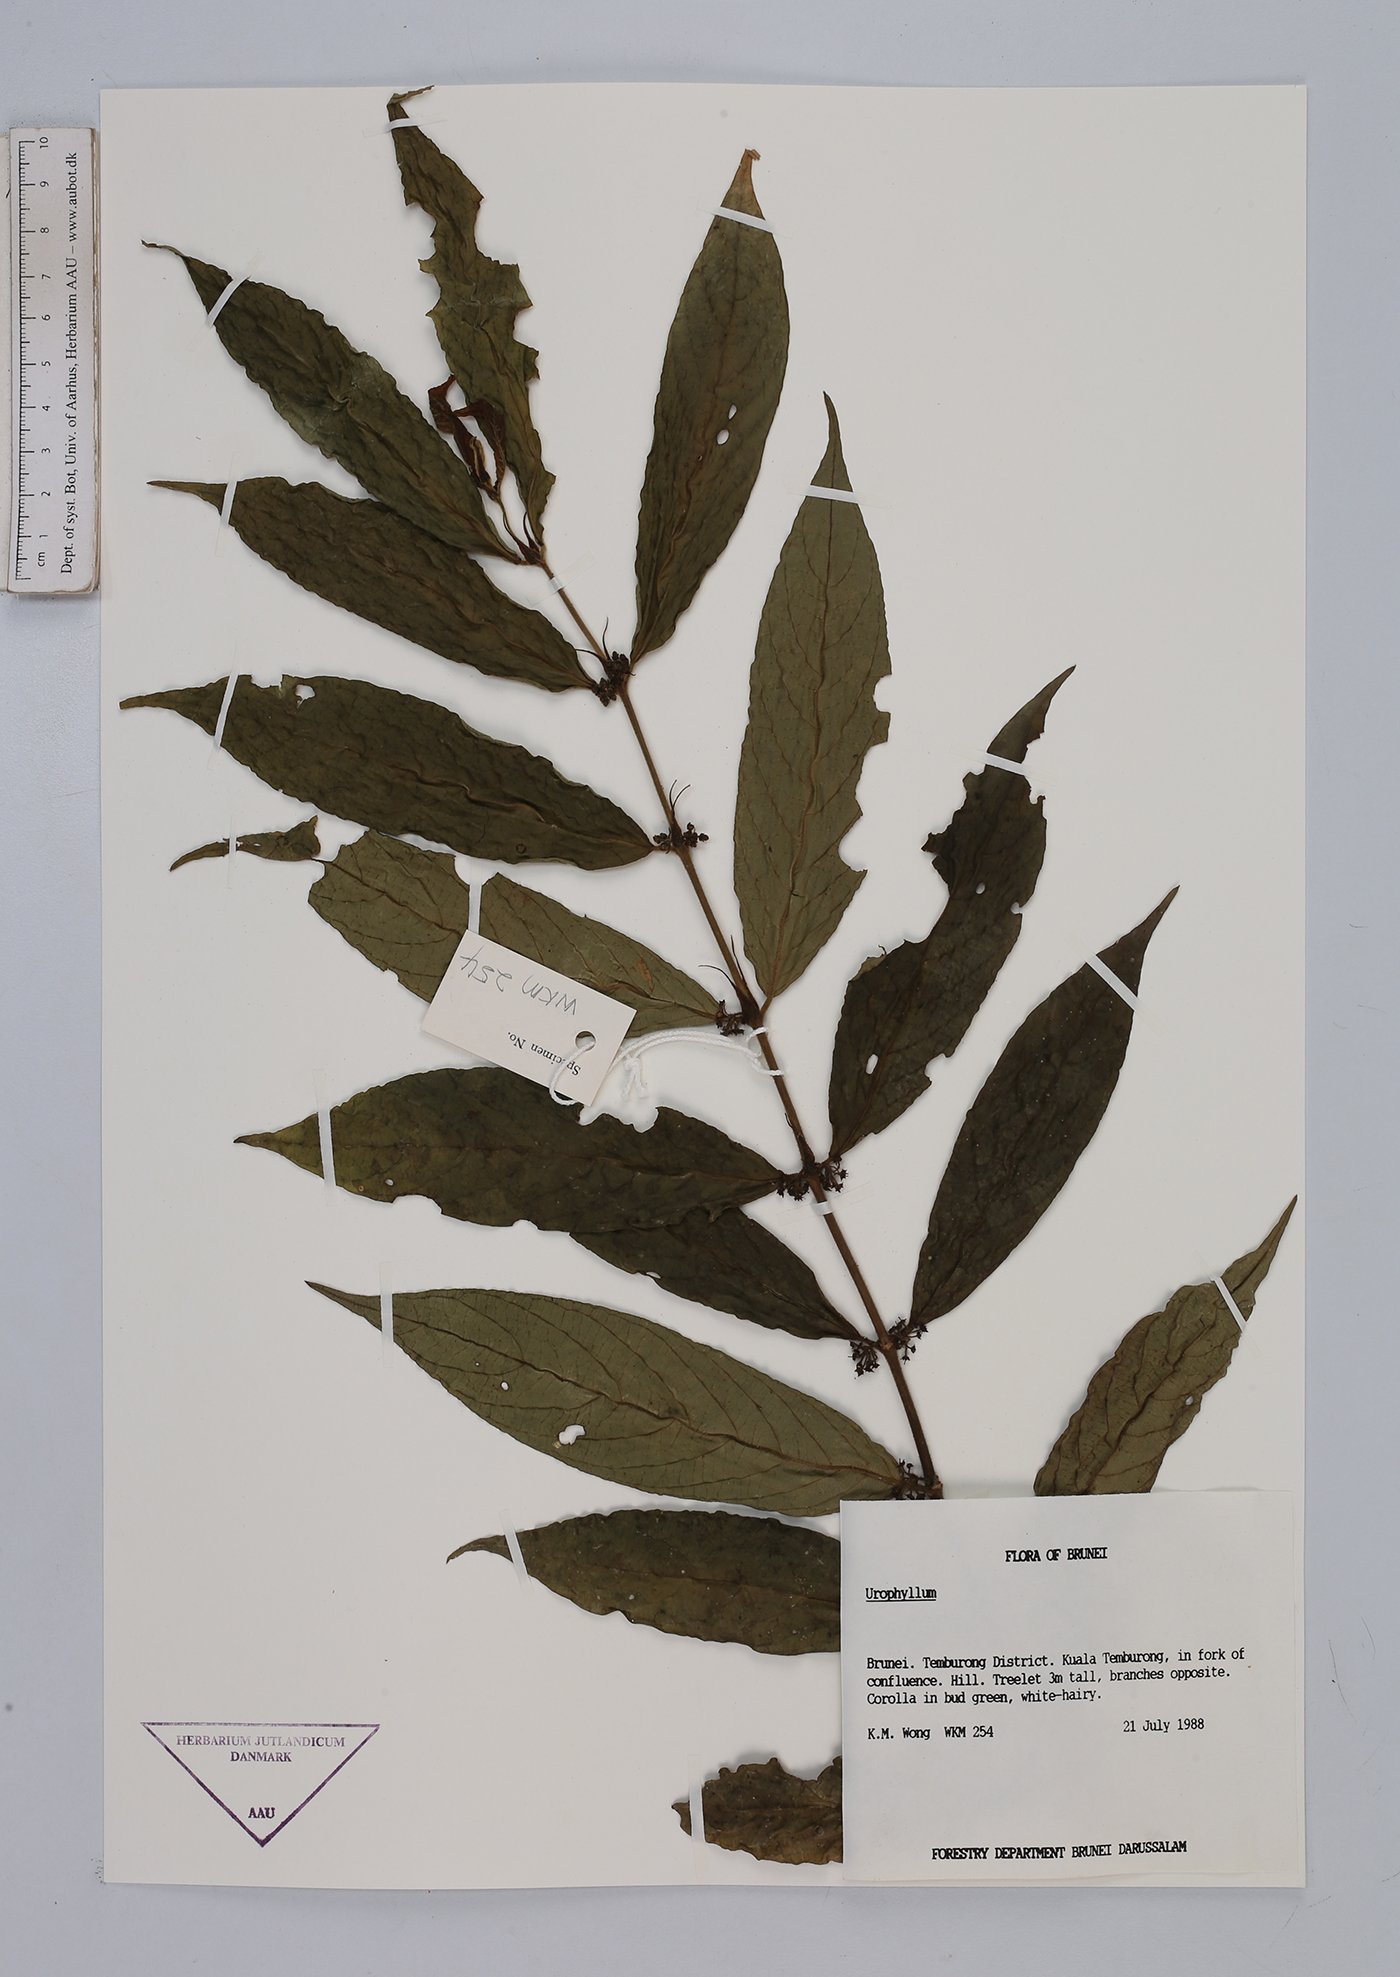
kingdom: Plantae
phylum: Tracheophyta
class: Magnoliopsida
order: Gentianales
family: Rubiaceae
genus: Urophyllum
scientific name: Urophyllum
